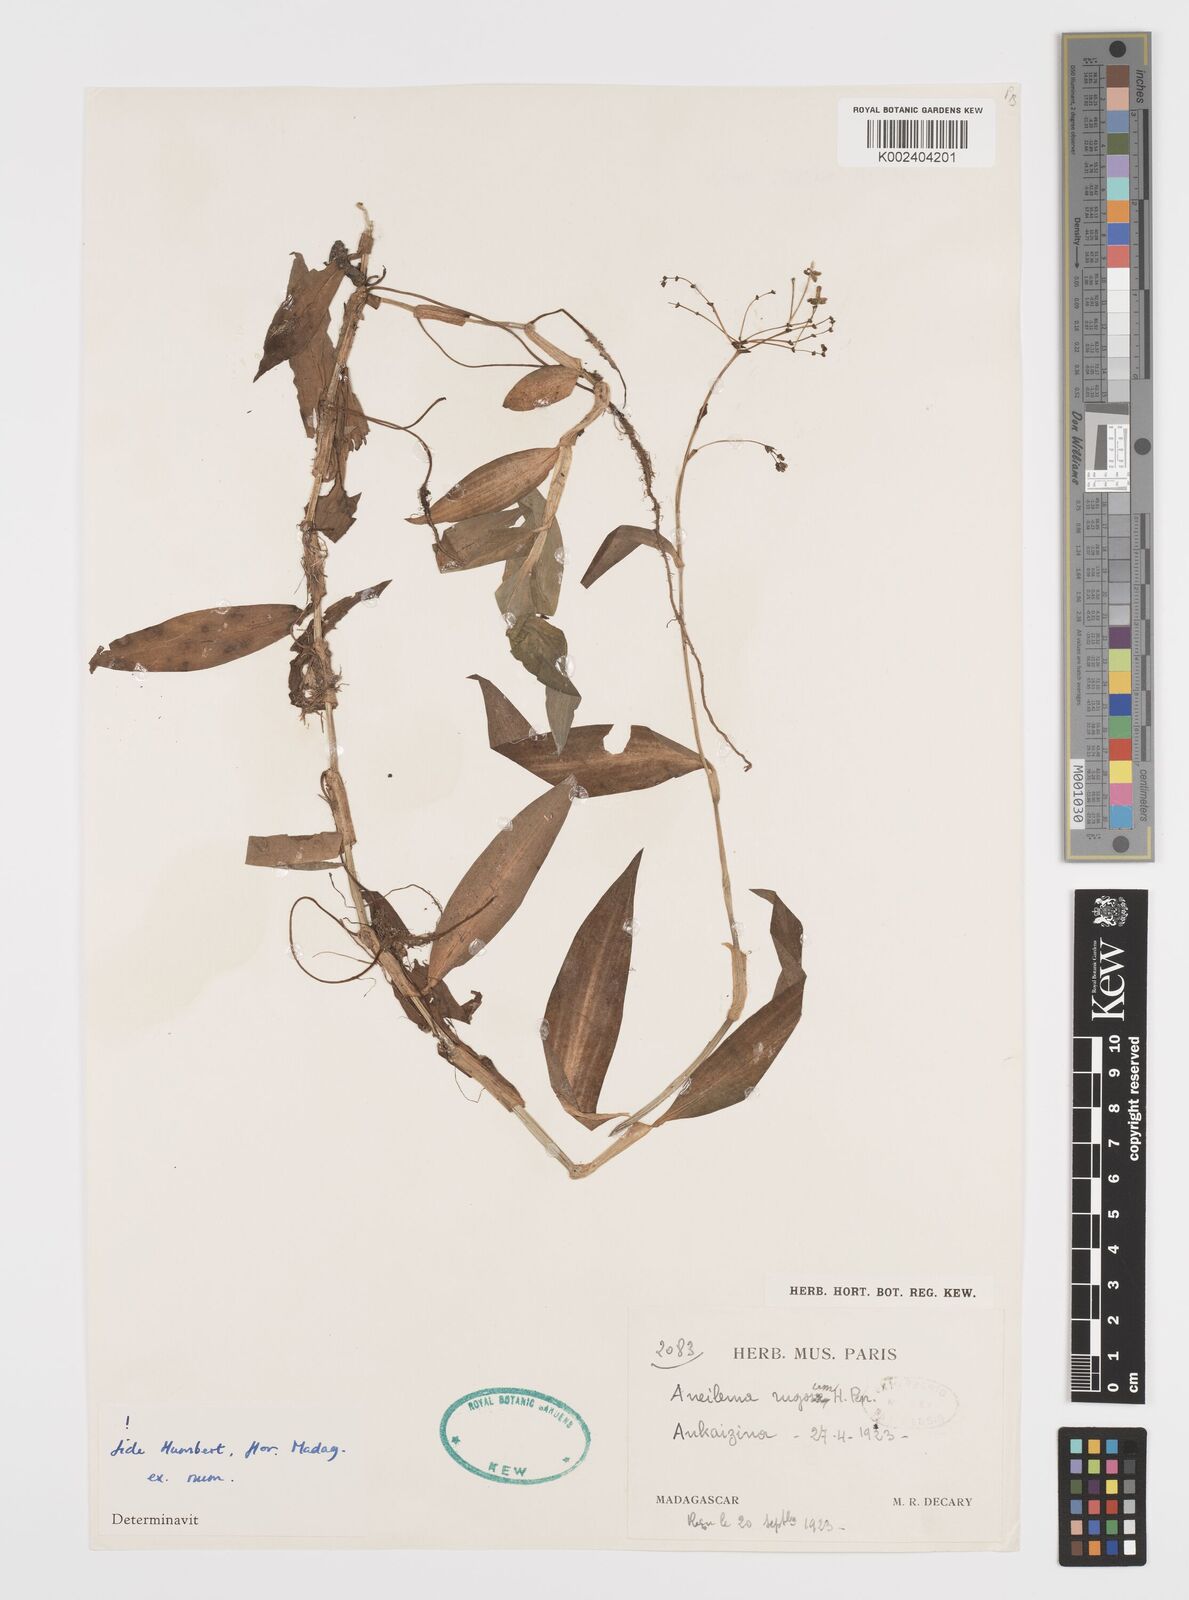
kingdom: Plantae
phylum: Tracheophyta
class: Liliopsida
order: Commelinales
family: Commelinaceae
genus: Rhopalephora
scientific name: Rhopalephora rugosa
